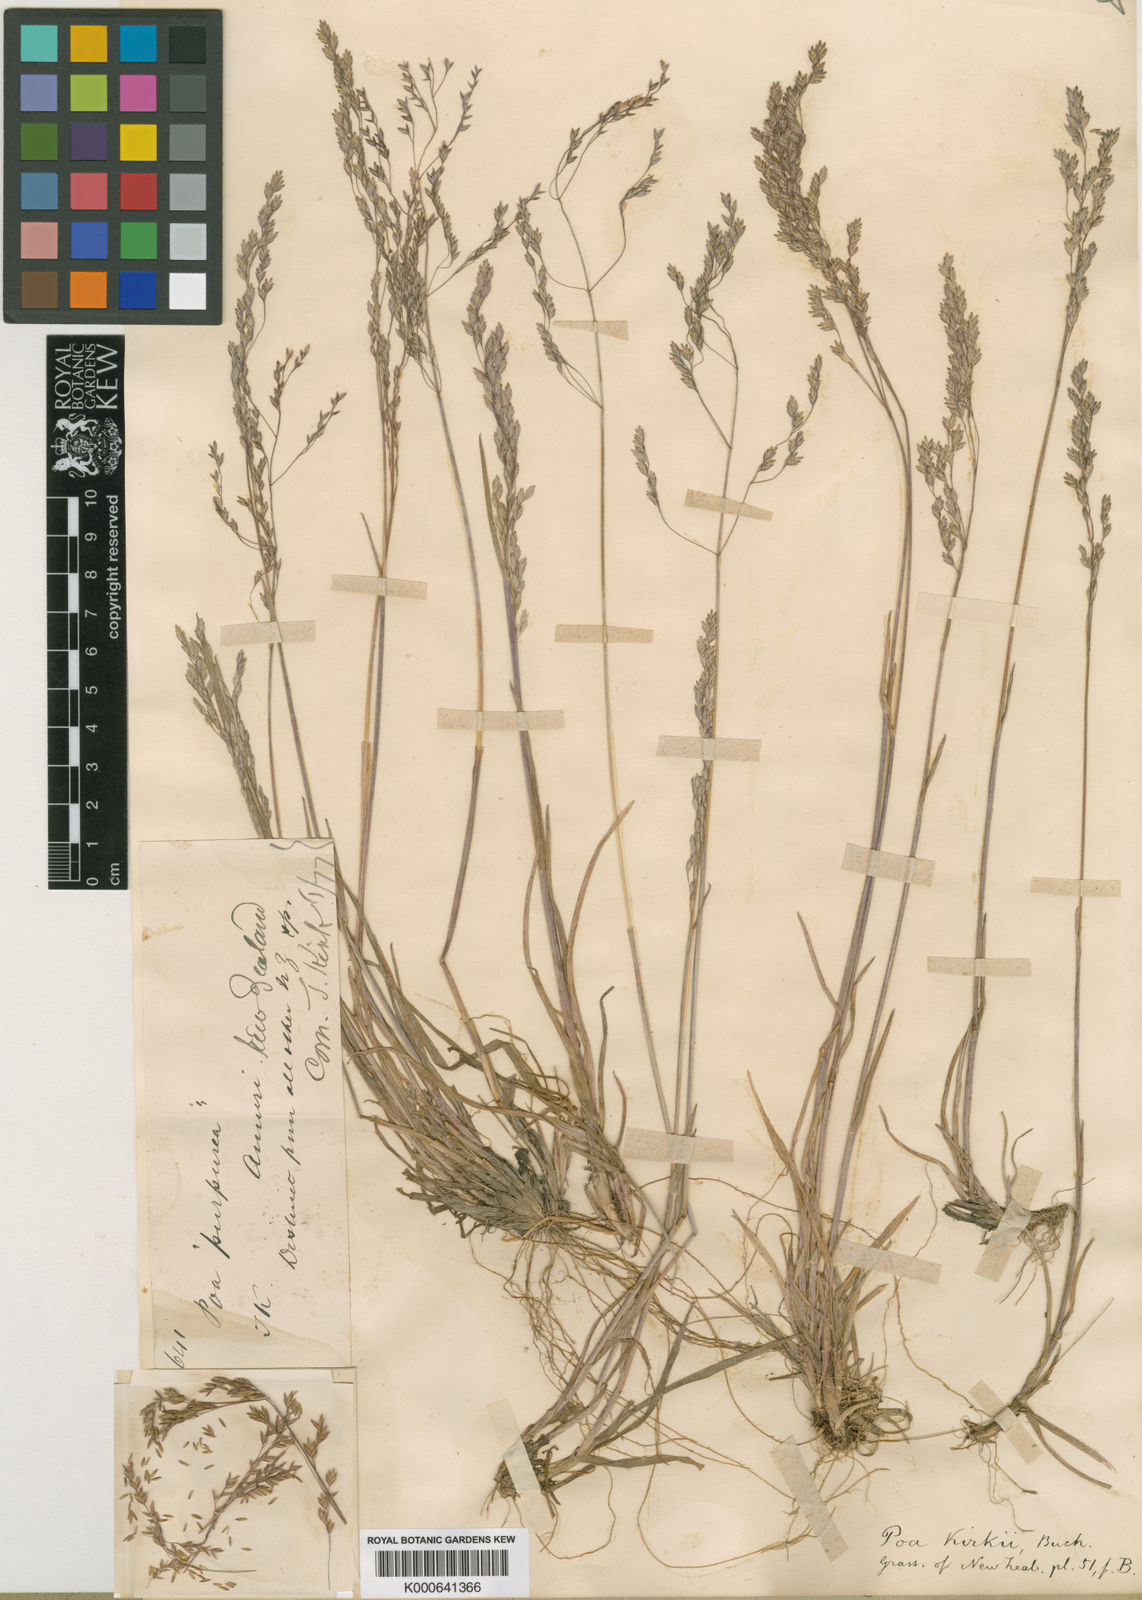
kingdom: Plantae
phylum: Tracheophyta
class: Liliopsida
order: Poales
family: Poaceae
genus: Poa
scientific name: Poa kirkii
